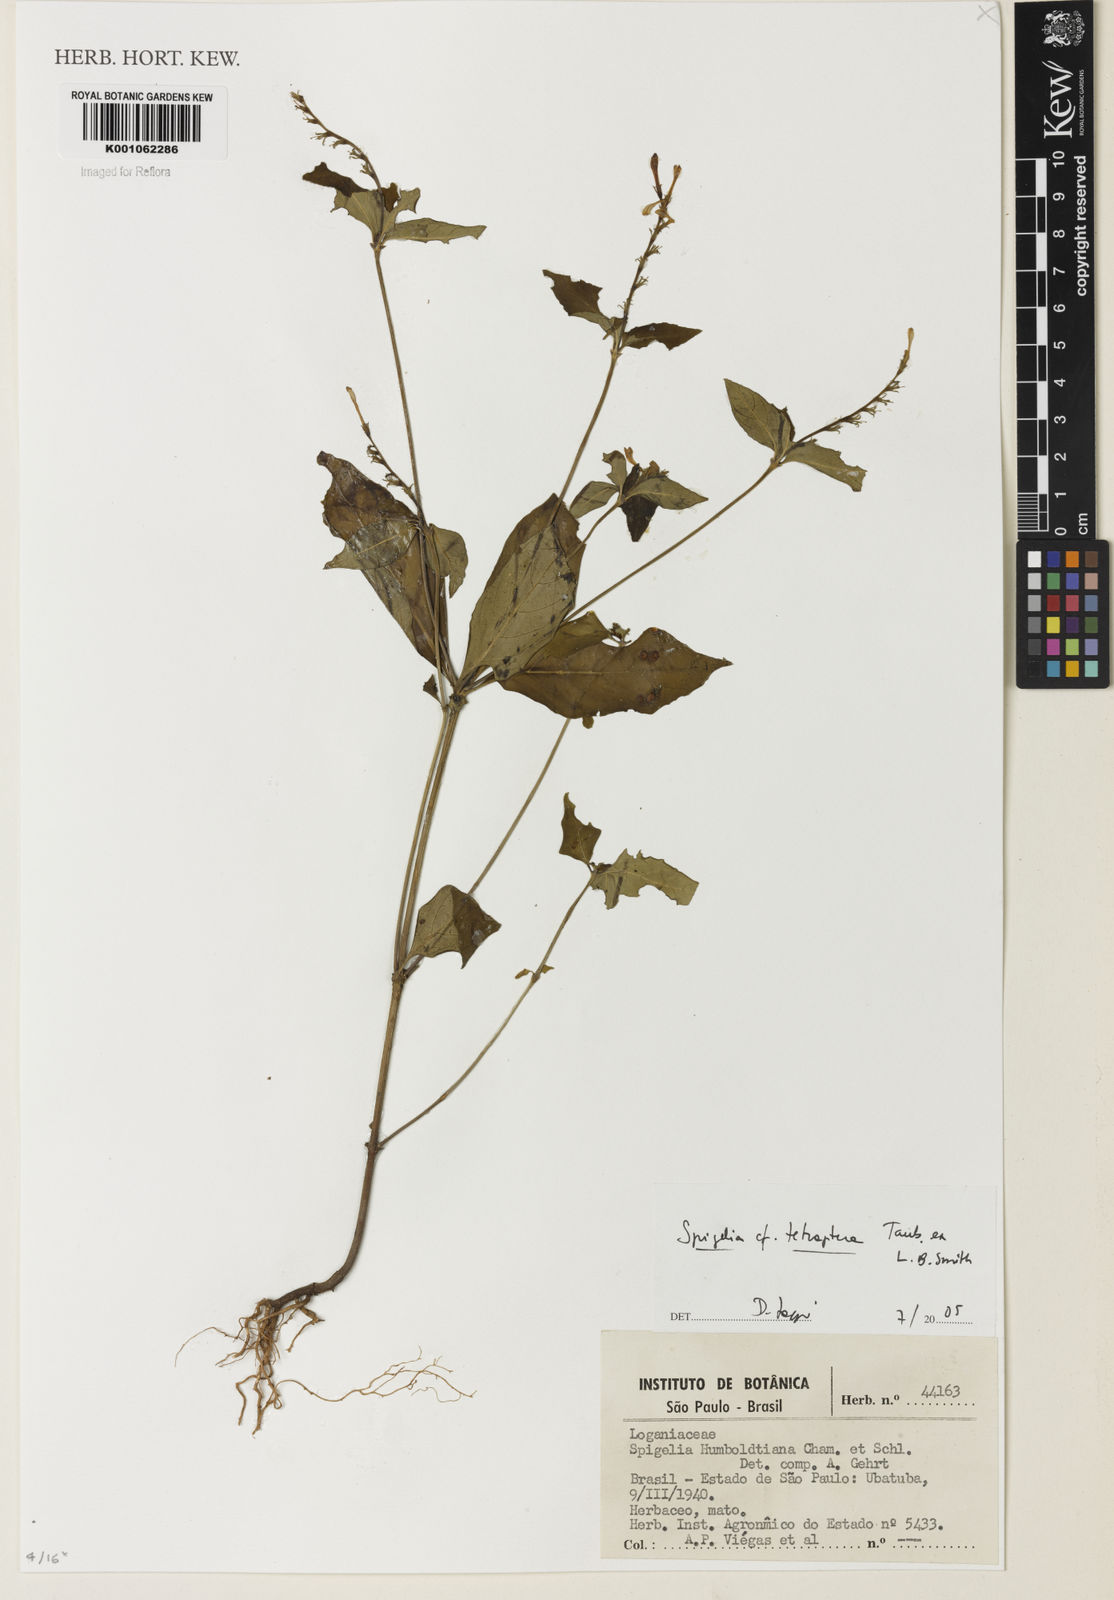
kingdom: Plantae
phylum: Tracheophyta
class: Magnoliopsida
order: Gentianales
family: Loganiaceae
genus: Spigelia
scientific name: Spigelia tetraptera
